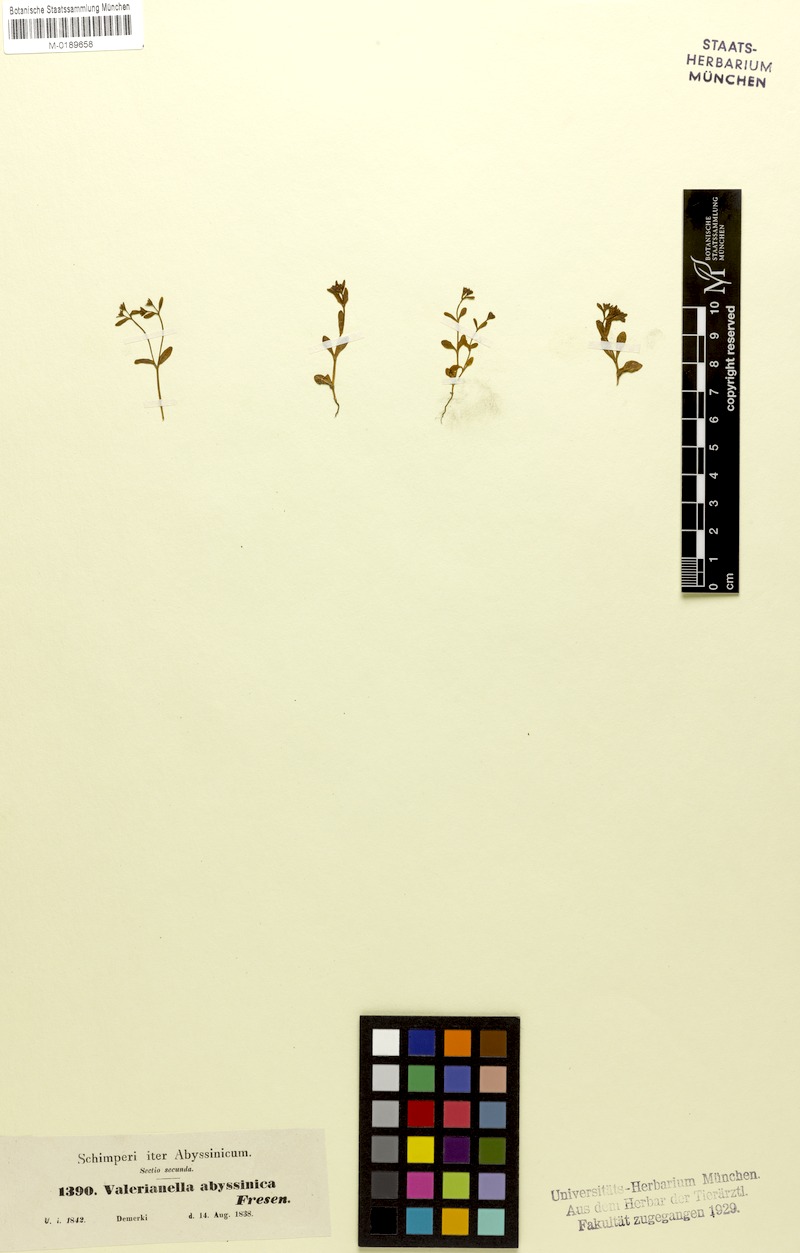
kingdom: Plantae
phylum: Tracheophyta
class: Magnoliopsida
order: Dipsacales
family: Caprifoliaceae
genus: Valerianella
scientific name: Valerianella microcarpa
